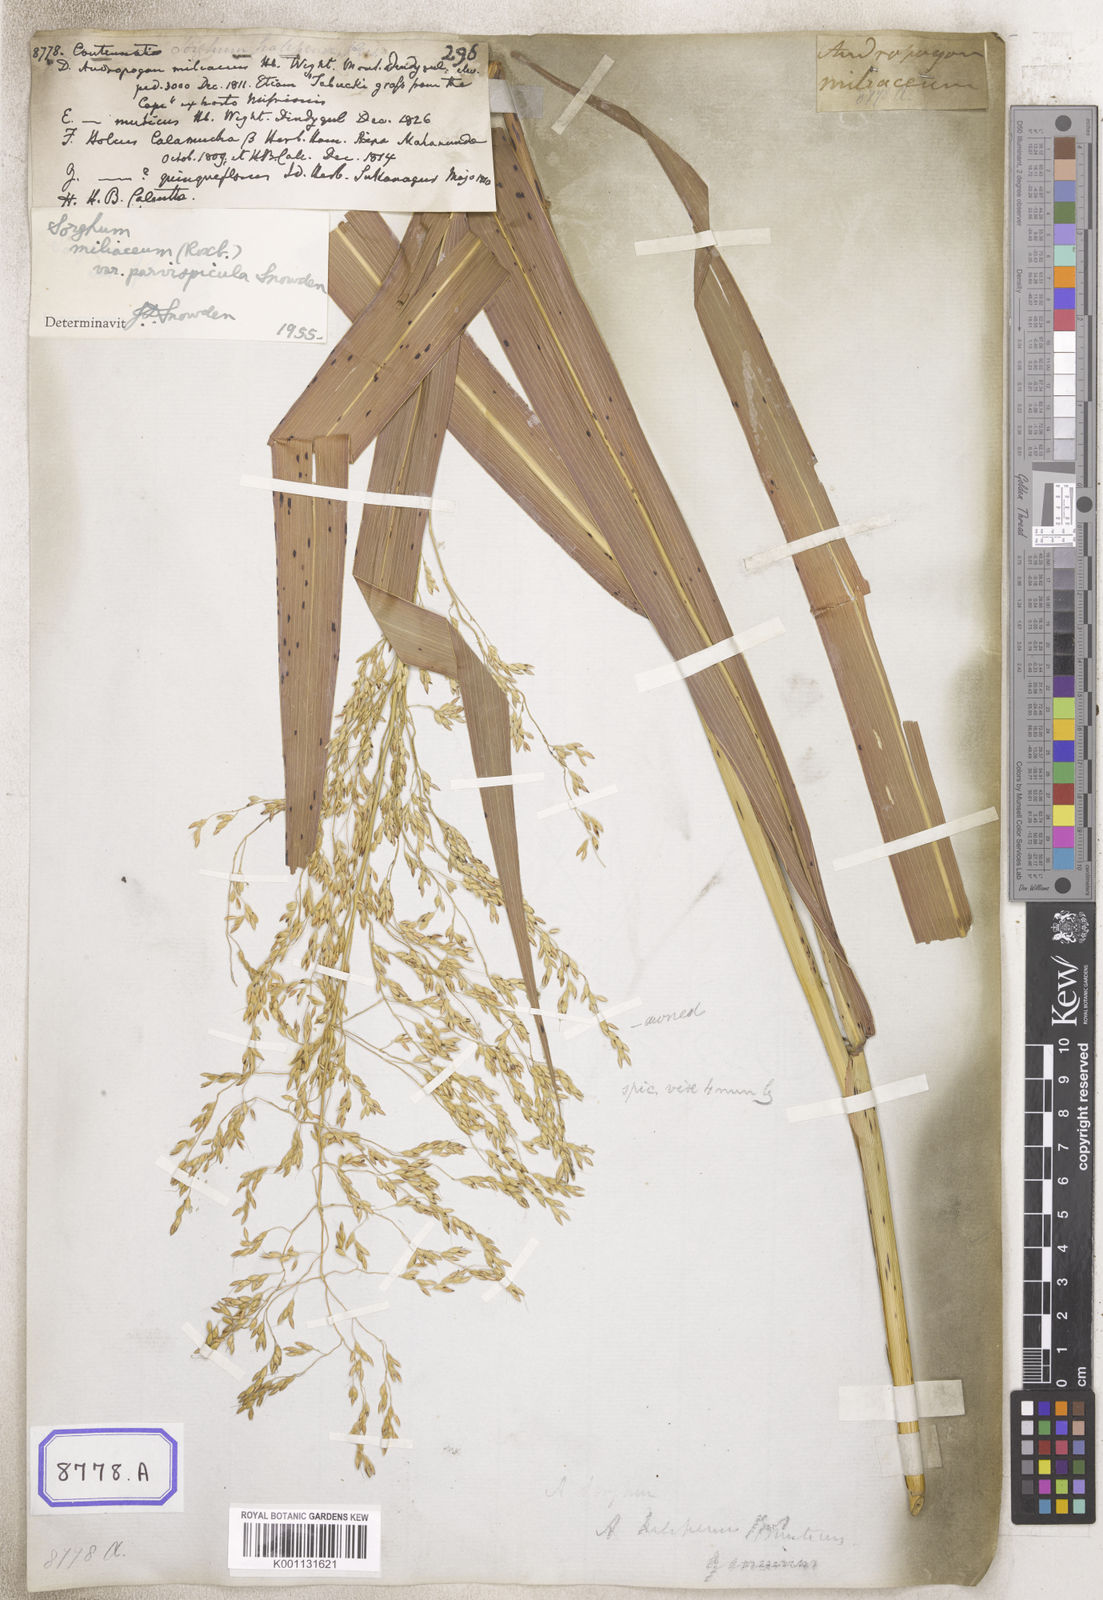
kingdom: Plantae
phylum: Tracheophyta
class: Liliopsida
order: Poales
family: Poaceae
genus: Sorghum
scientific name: Sorghum halepense
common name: Johnson-grass
